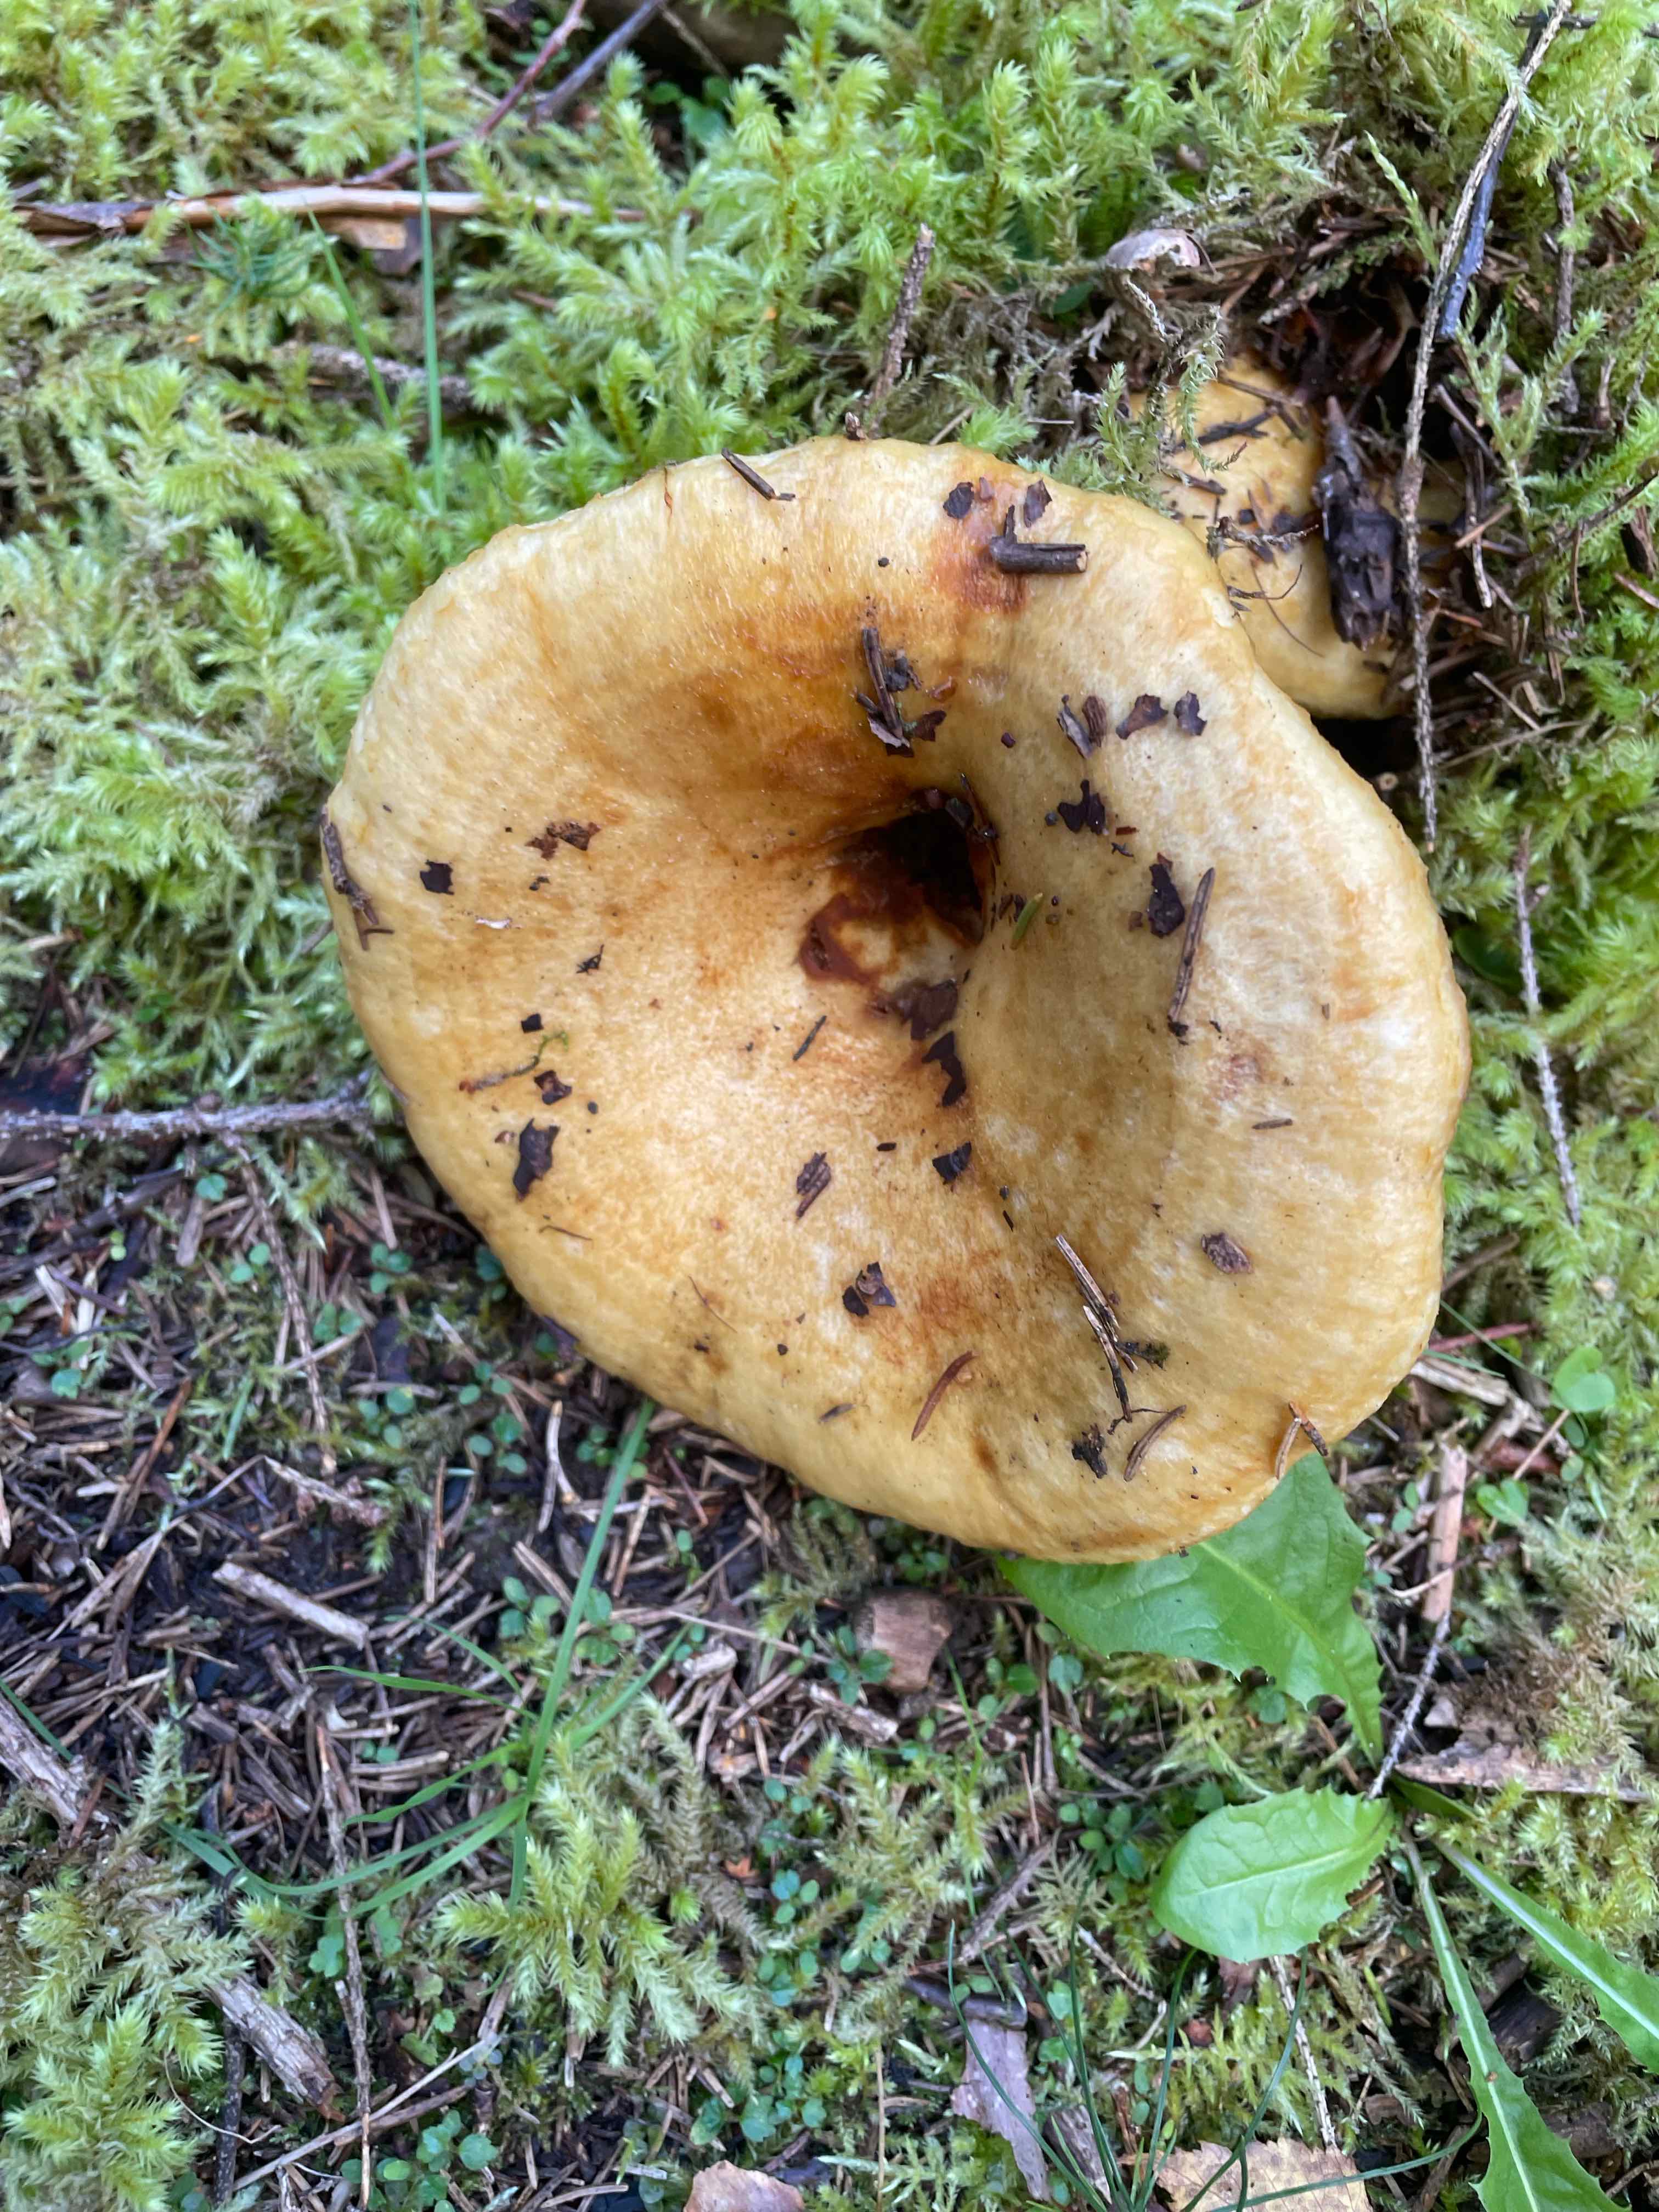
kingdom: Fungi
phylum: Basidiomycota
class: Agaricomycetes
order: Russulales
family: Russulaceae
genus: Lactarius
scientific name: Lactarius scrobiculatus
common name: grubestokket mælkehat
